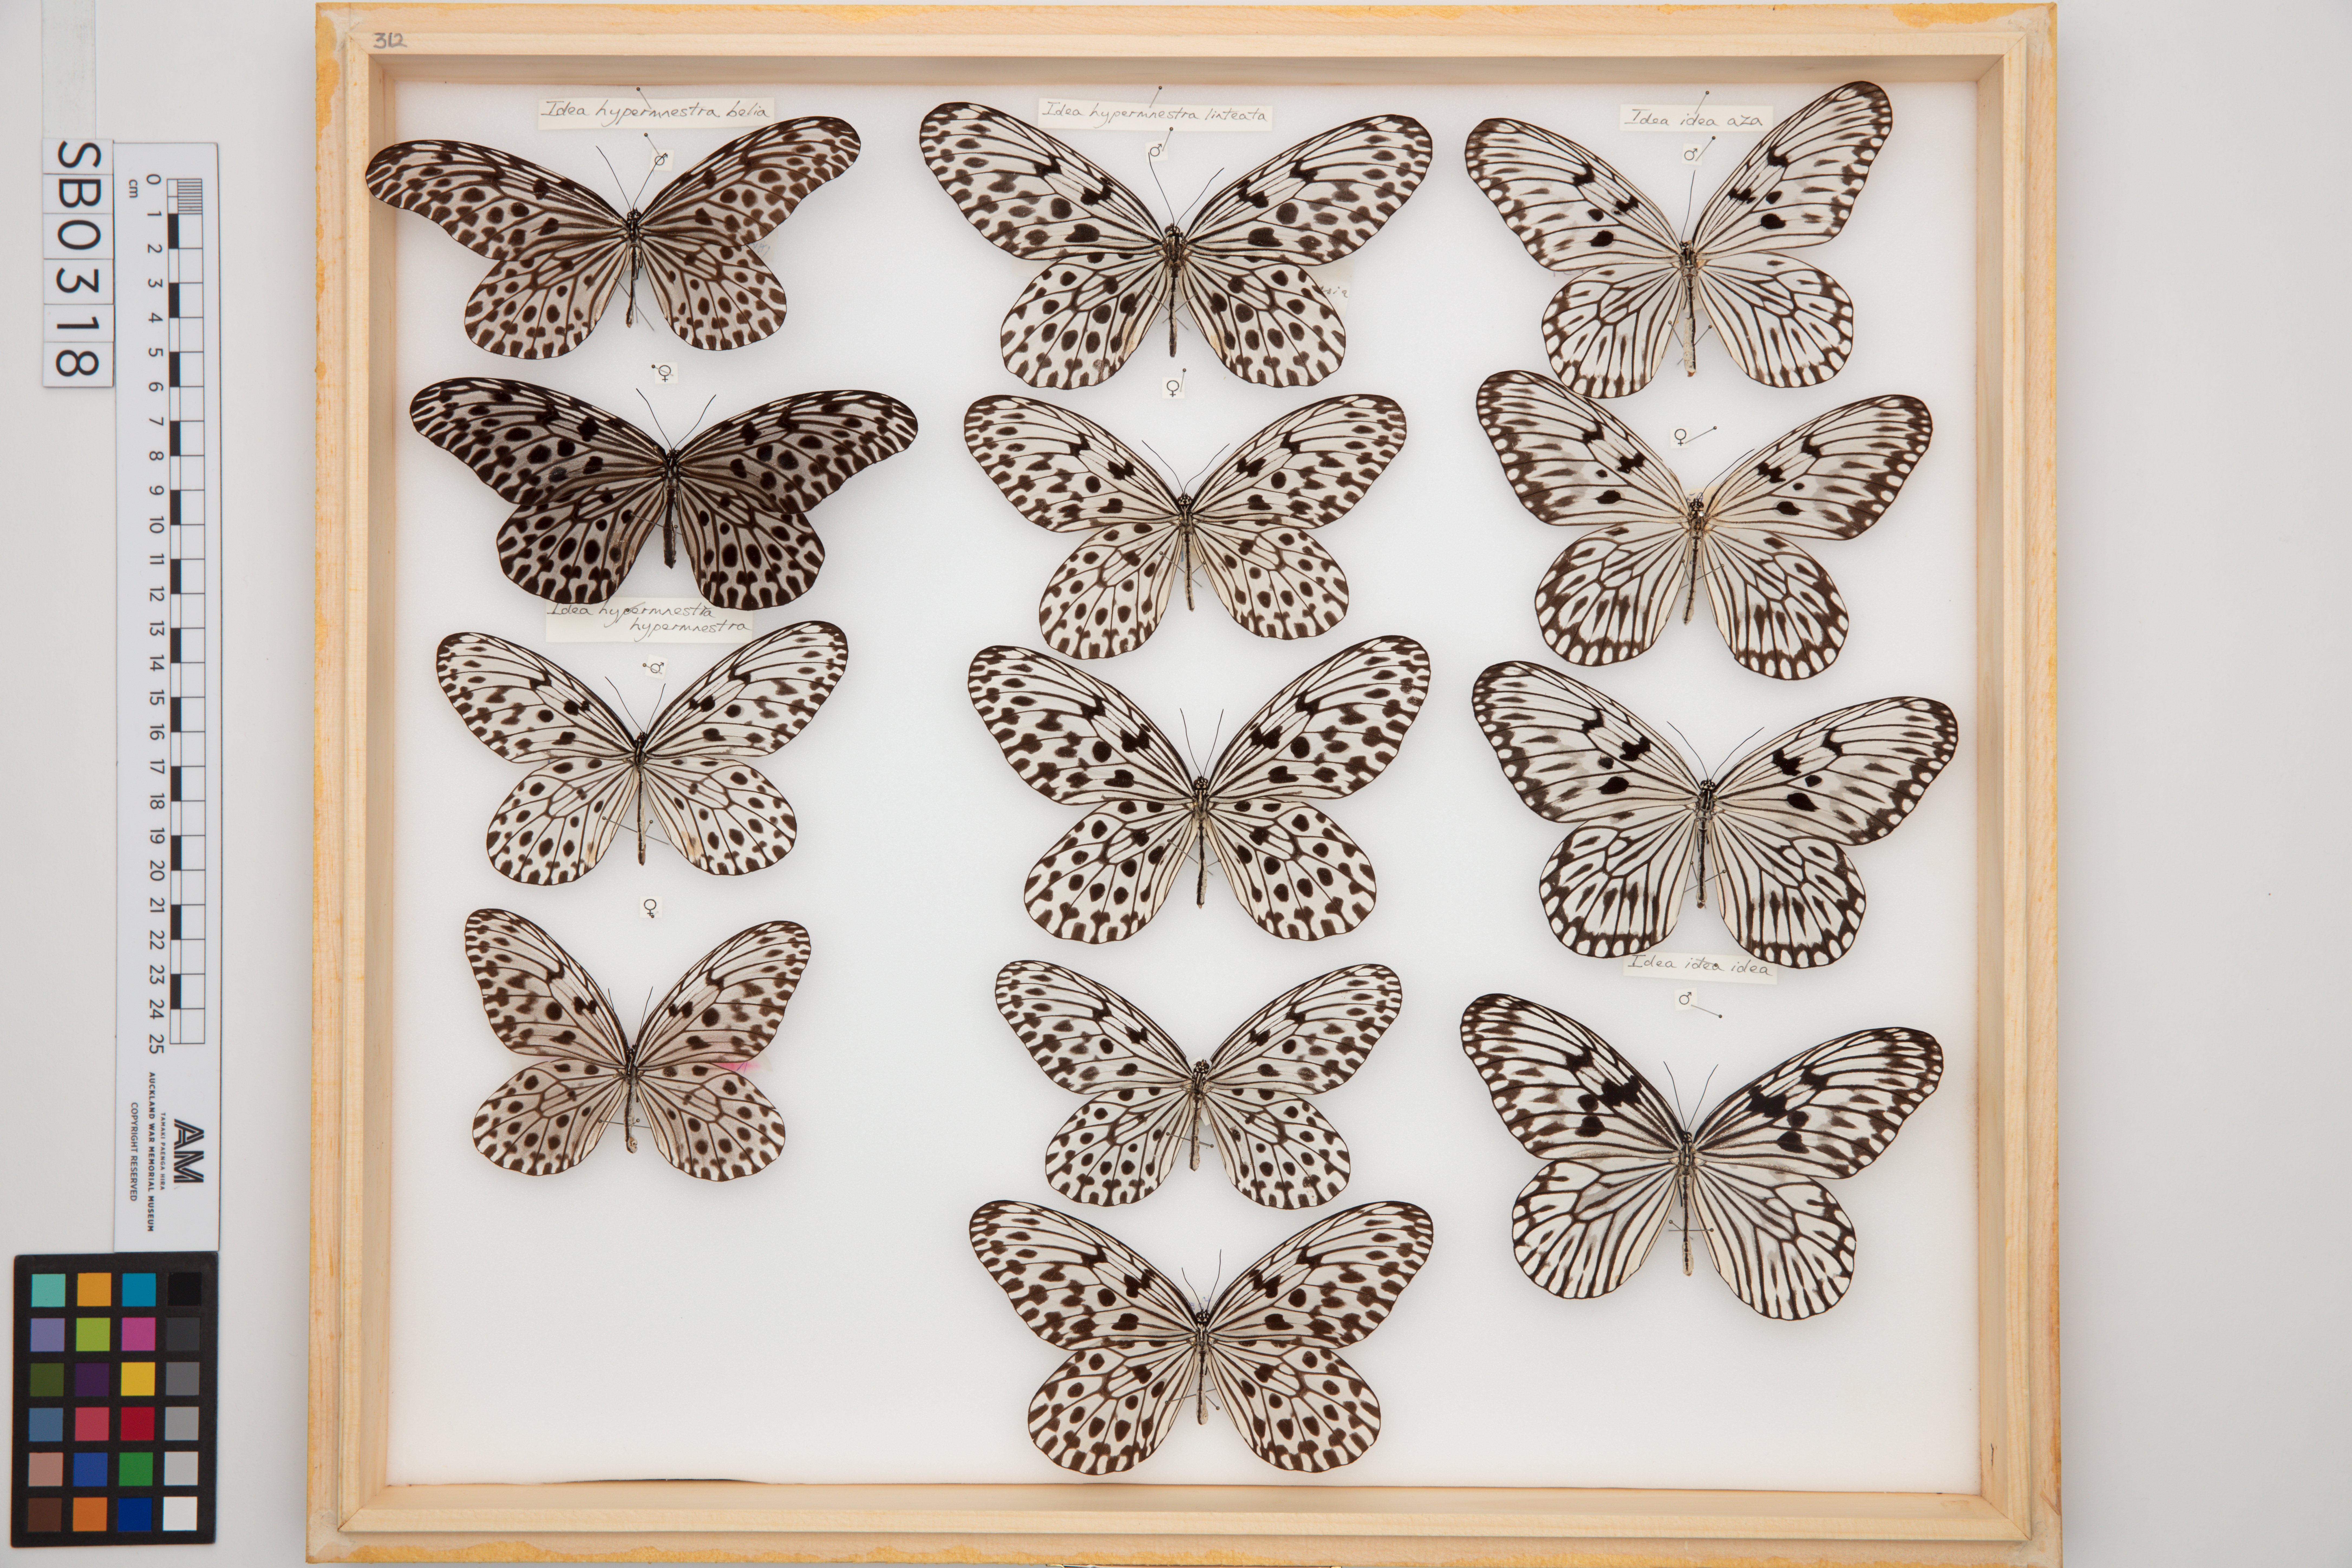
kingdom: Animalia
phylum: Arthropoda
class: Insecta
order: Lepidoptera
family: Nymphalidae
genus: Idea
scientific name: Idea idea
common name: Linnaeus' idea
